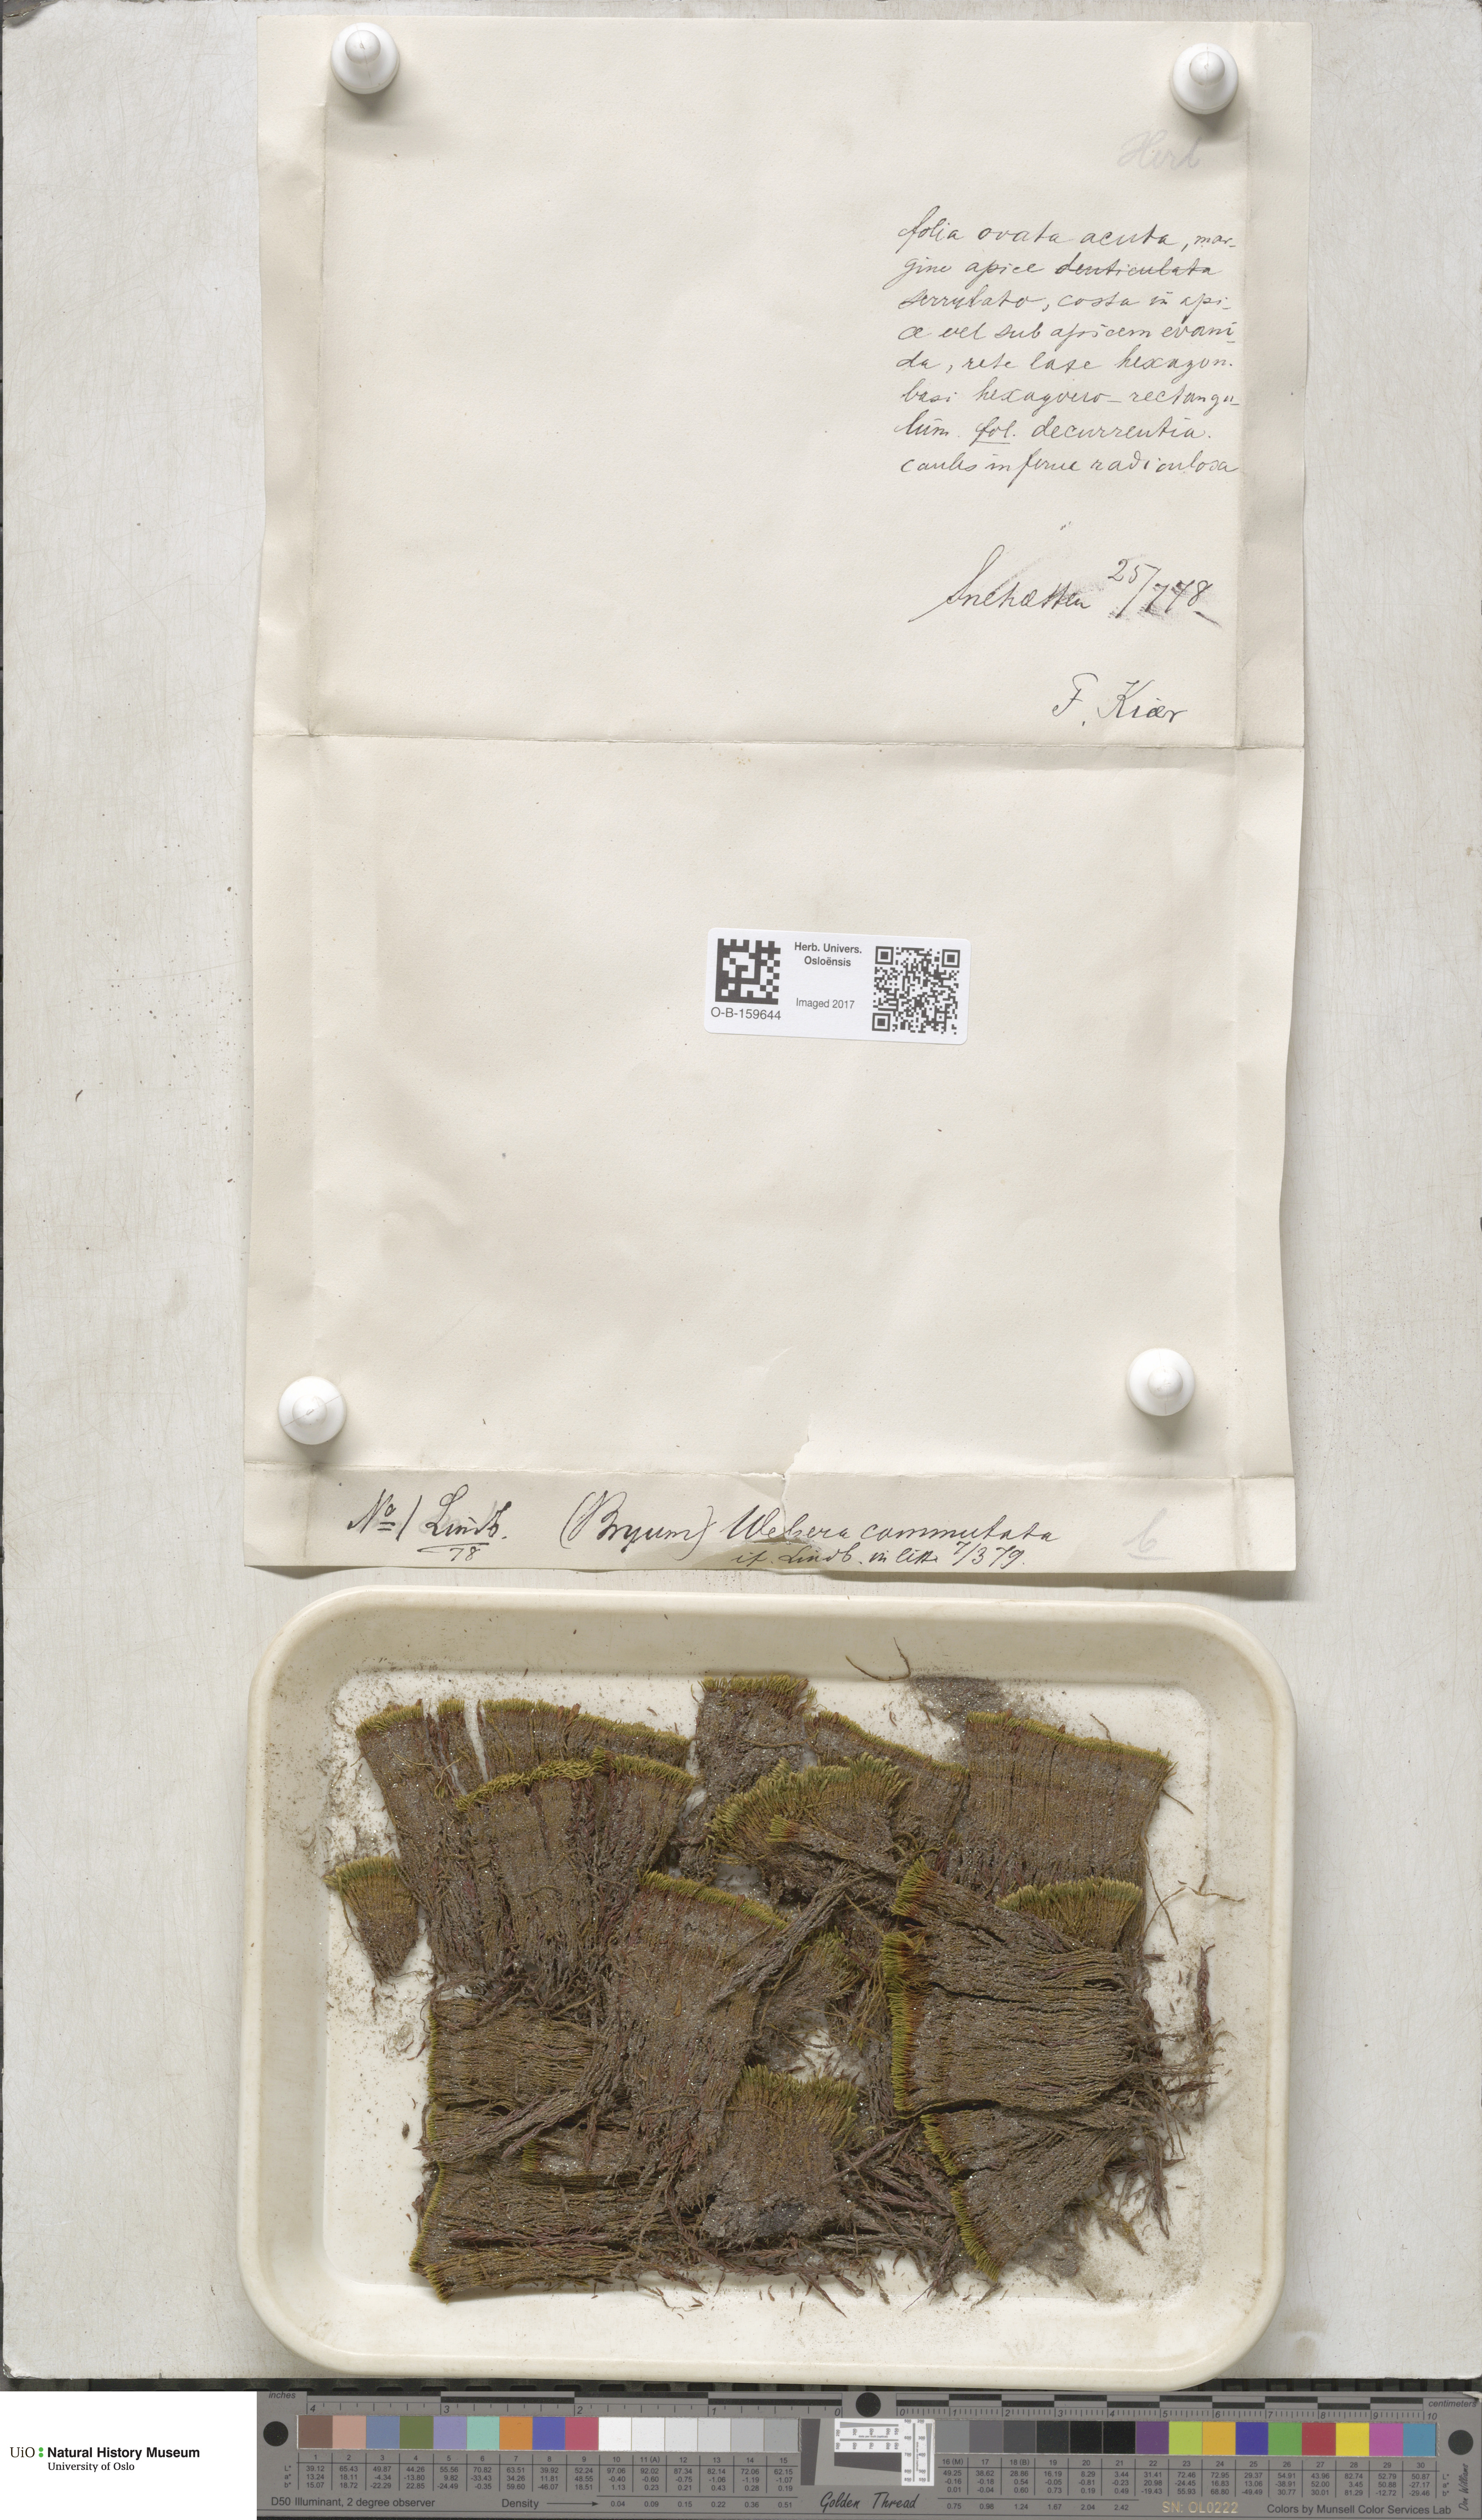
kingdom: Plantae
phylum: Bryophyta
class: Bryopsida
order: Bryales
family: Mniaceae
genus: Pohlia
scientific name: Pohlia drummondii
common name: Drummond's nodding moss
